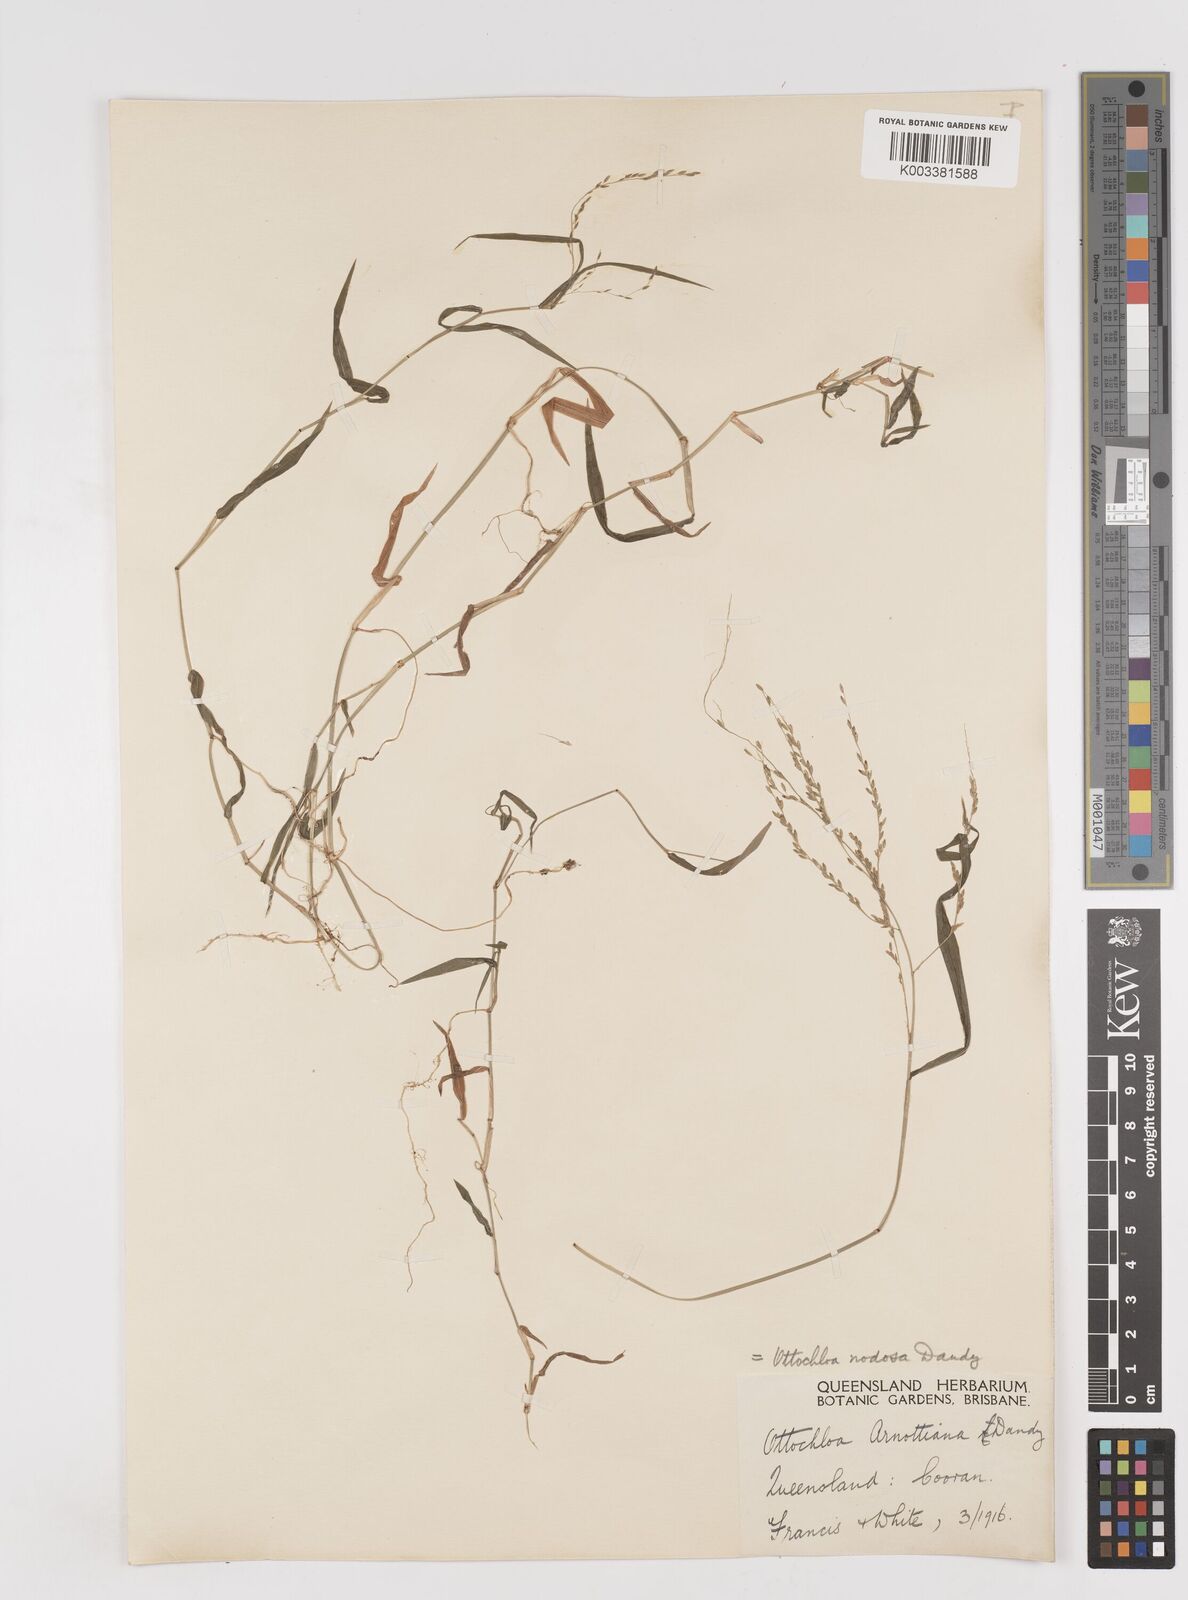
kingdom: Plantae
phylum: Tracheophyta
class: Liliopsida
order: Poales
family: Poaceae
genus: Ottochloa
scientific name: Ottochloa nodosa
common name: Slender-panic grass
